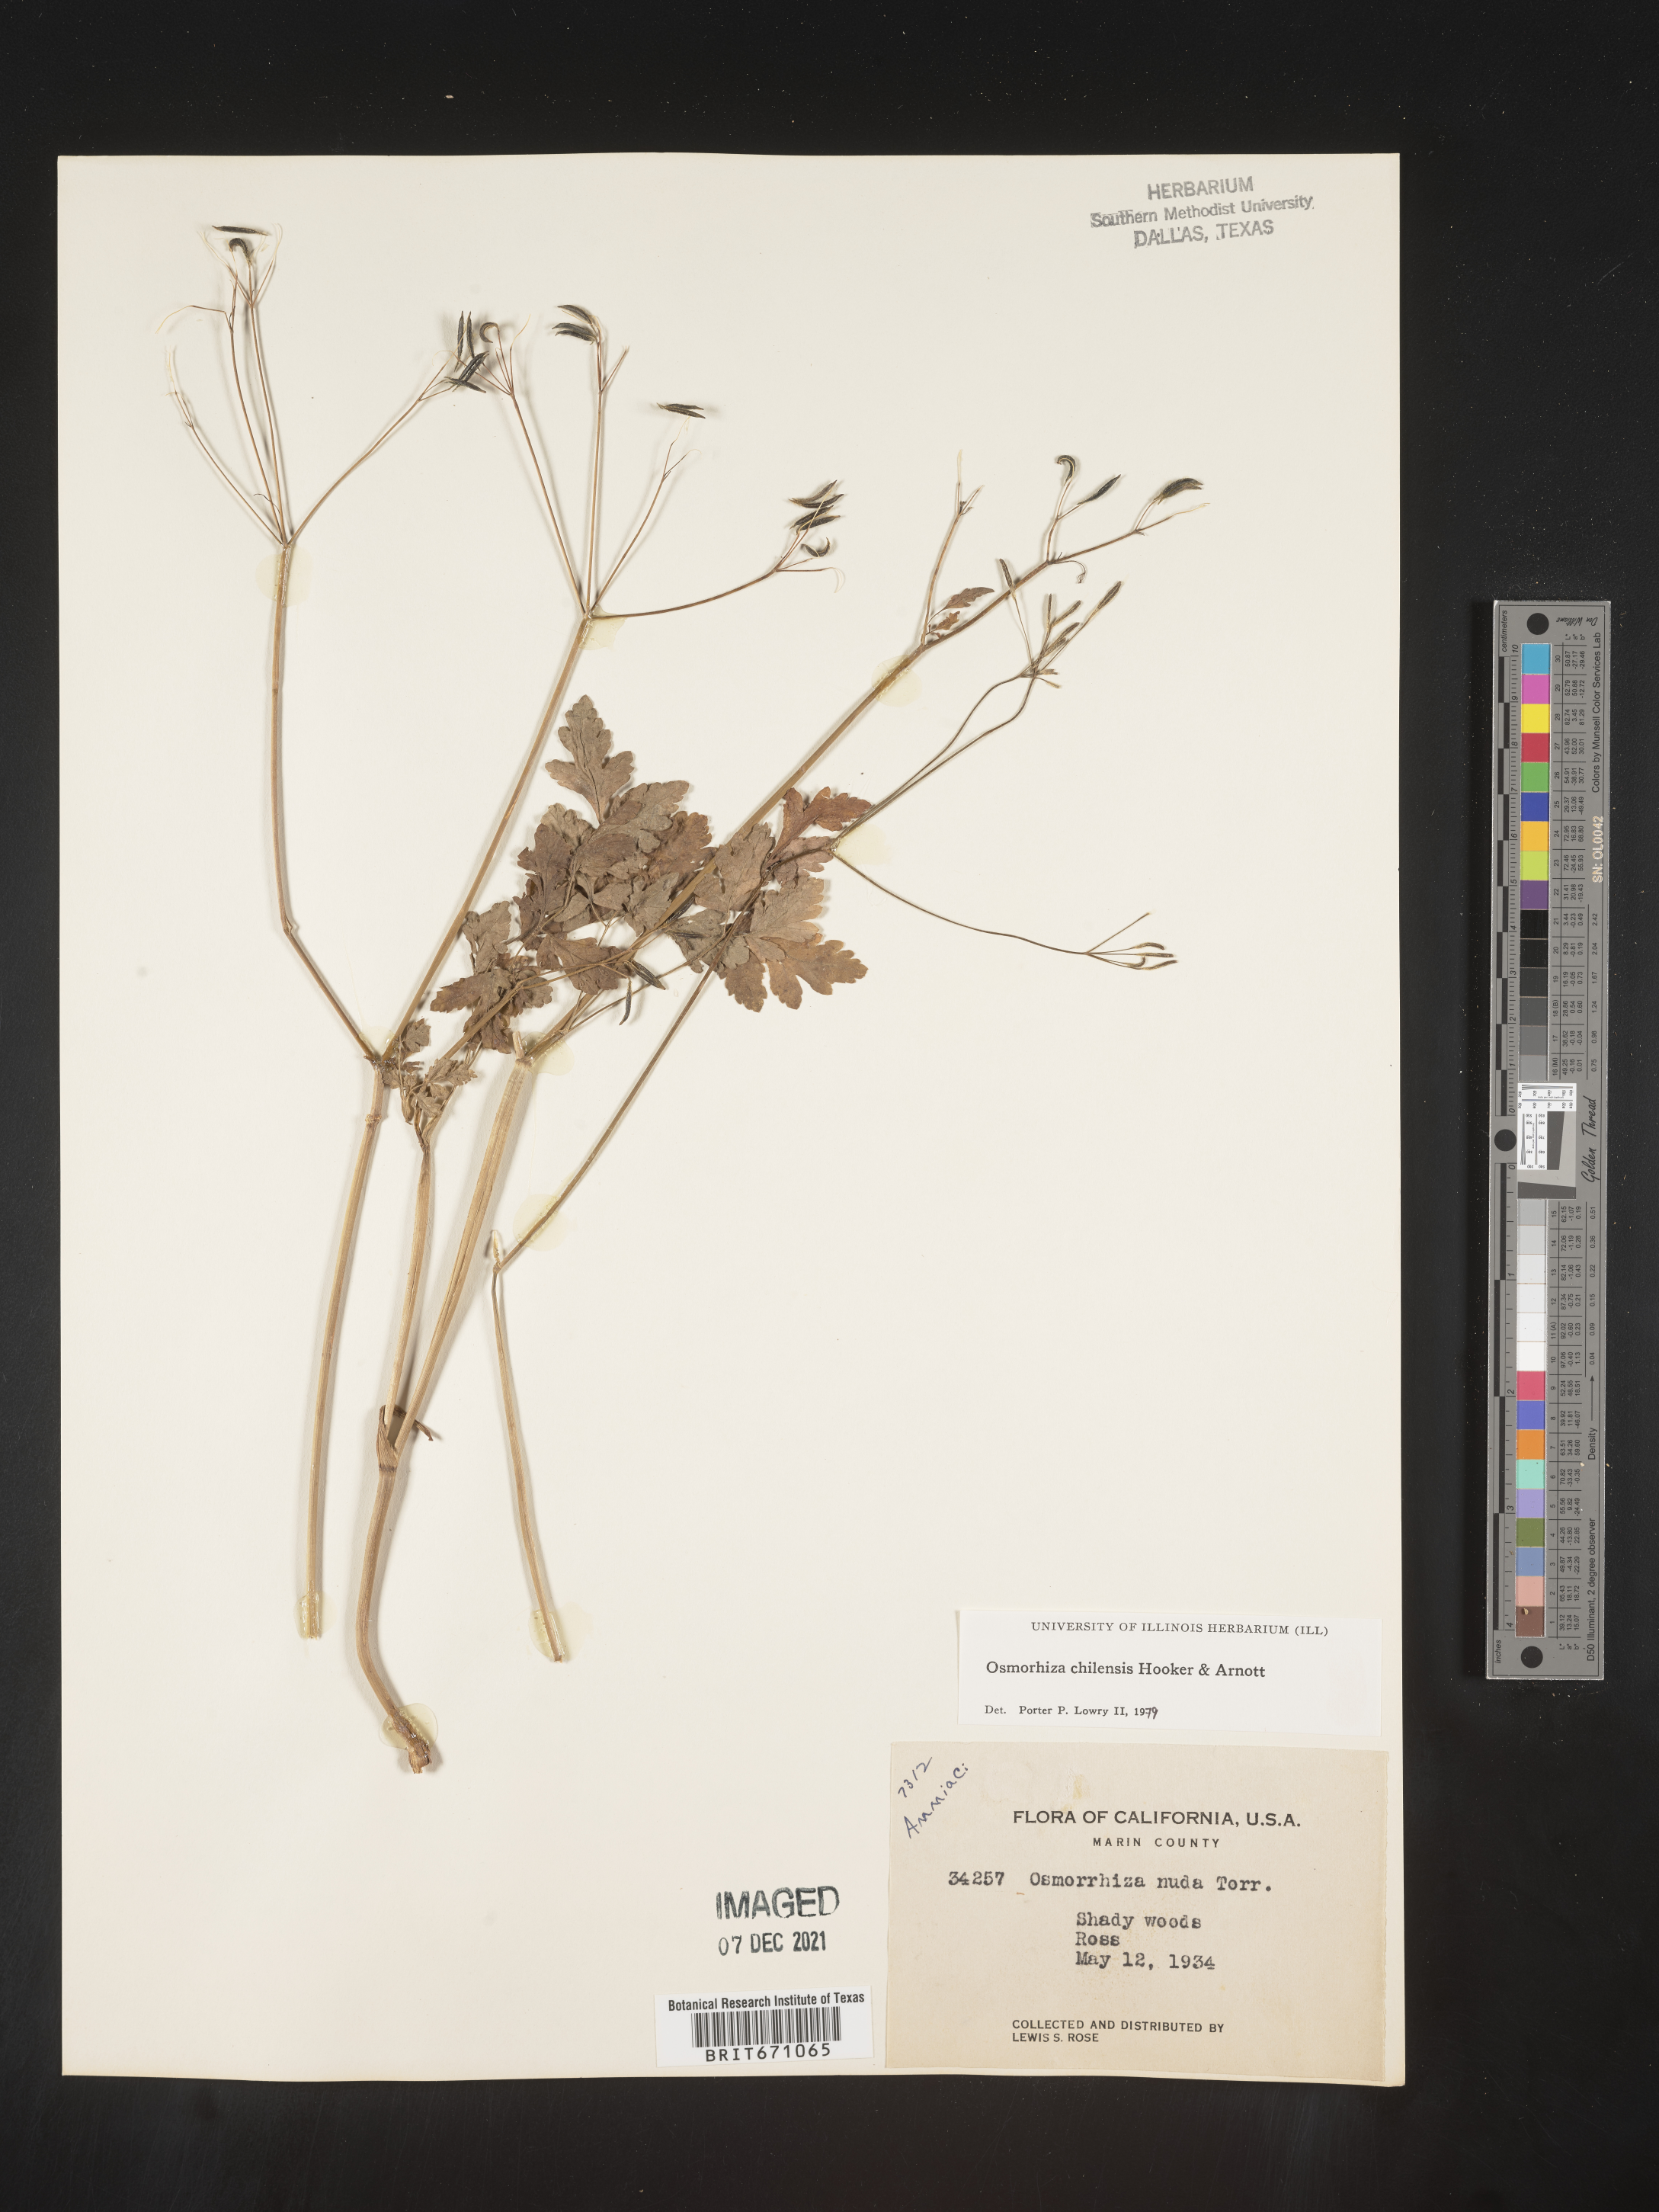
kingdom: Plantae
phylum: Tracheophyta
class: Magnoliopsida
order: Apiales
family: Apiaceae
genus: Osmorhiza
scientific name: Osmorhiza berteroi
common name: Mountain sweet cicely
